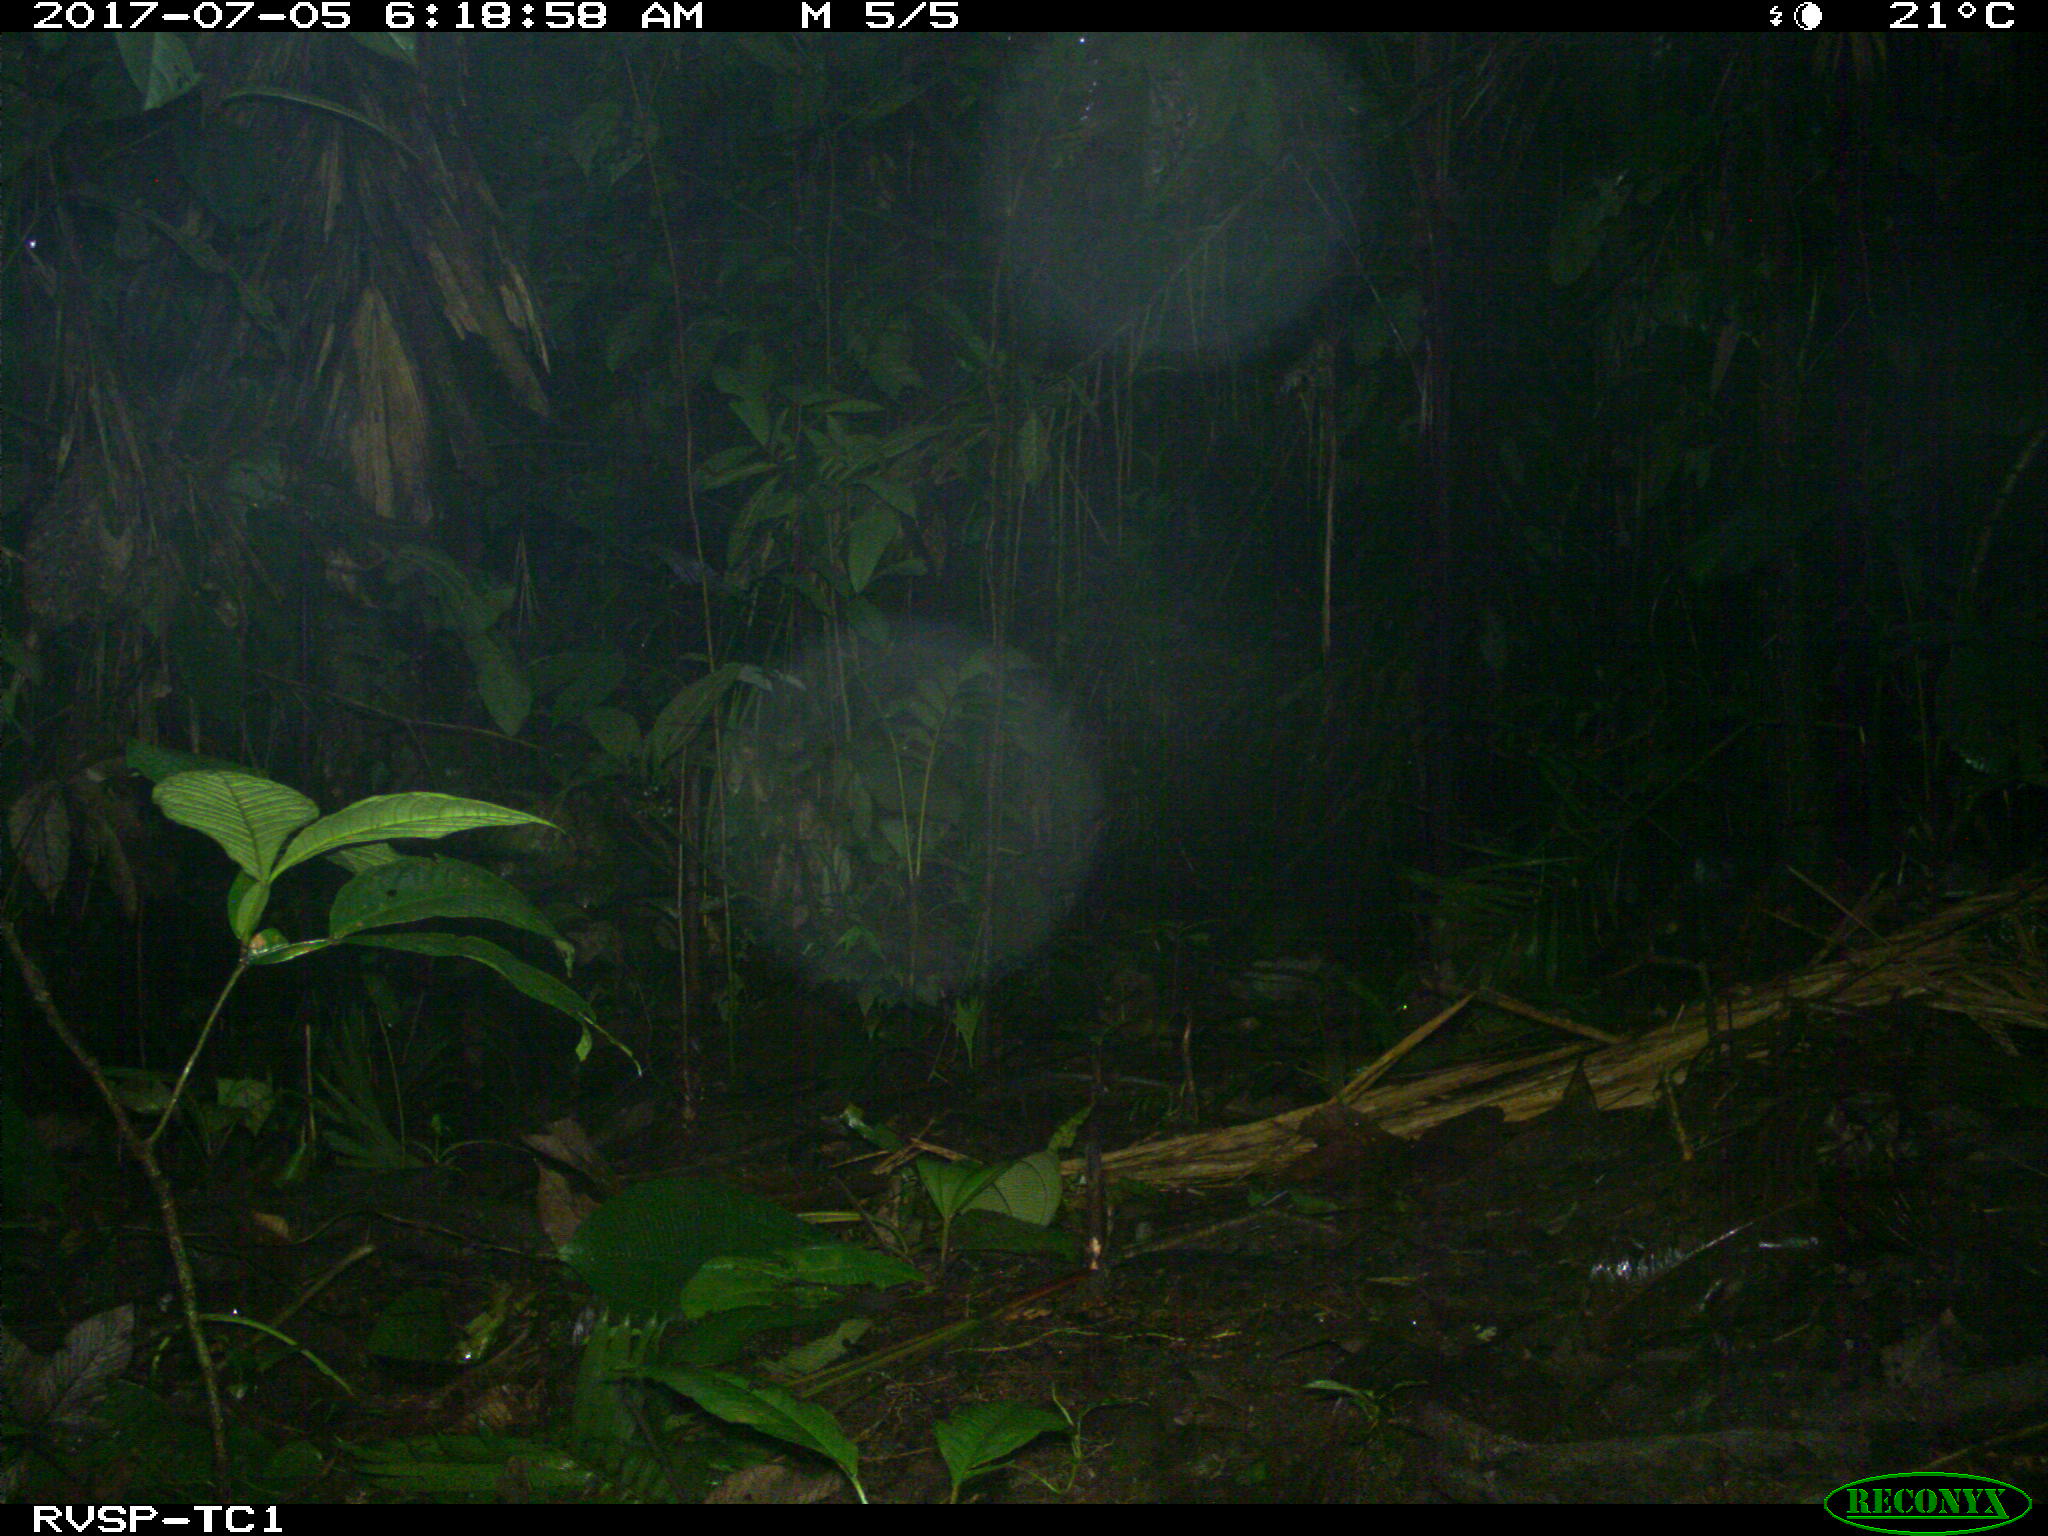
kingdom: Animalia
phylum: Chordata
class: Mammalia
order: Artiodactyla
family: Tayassuidae
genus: Pecari
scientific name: Pecari tajacu
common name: Collared peccary
